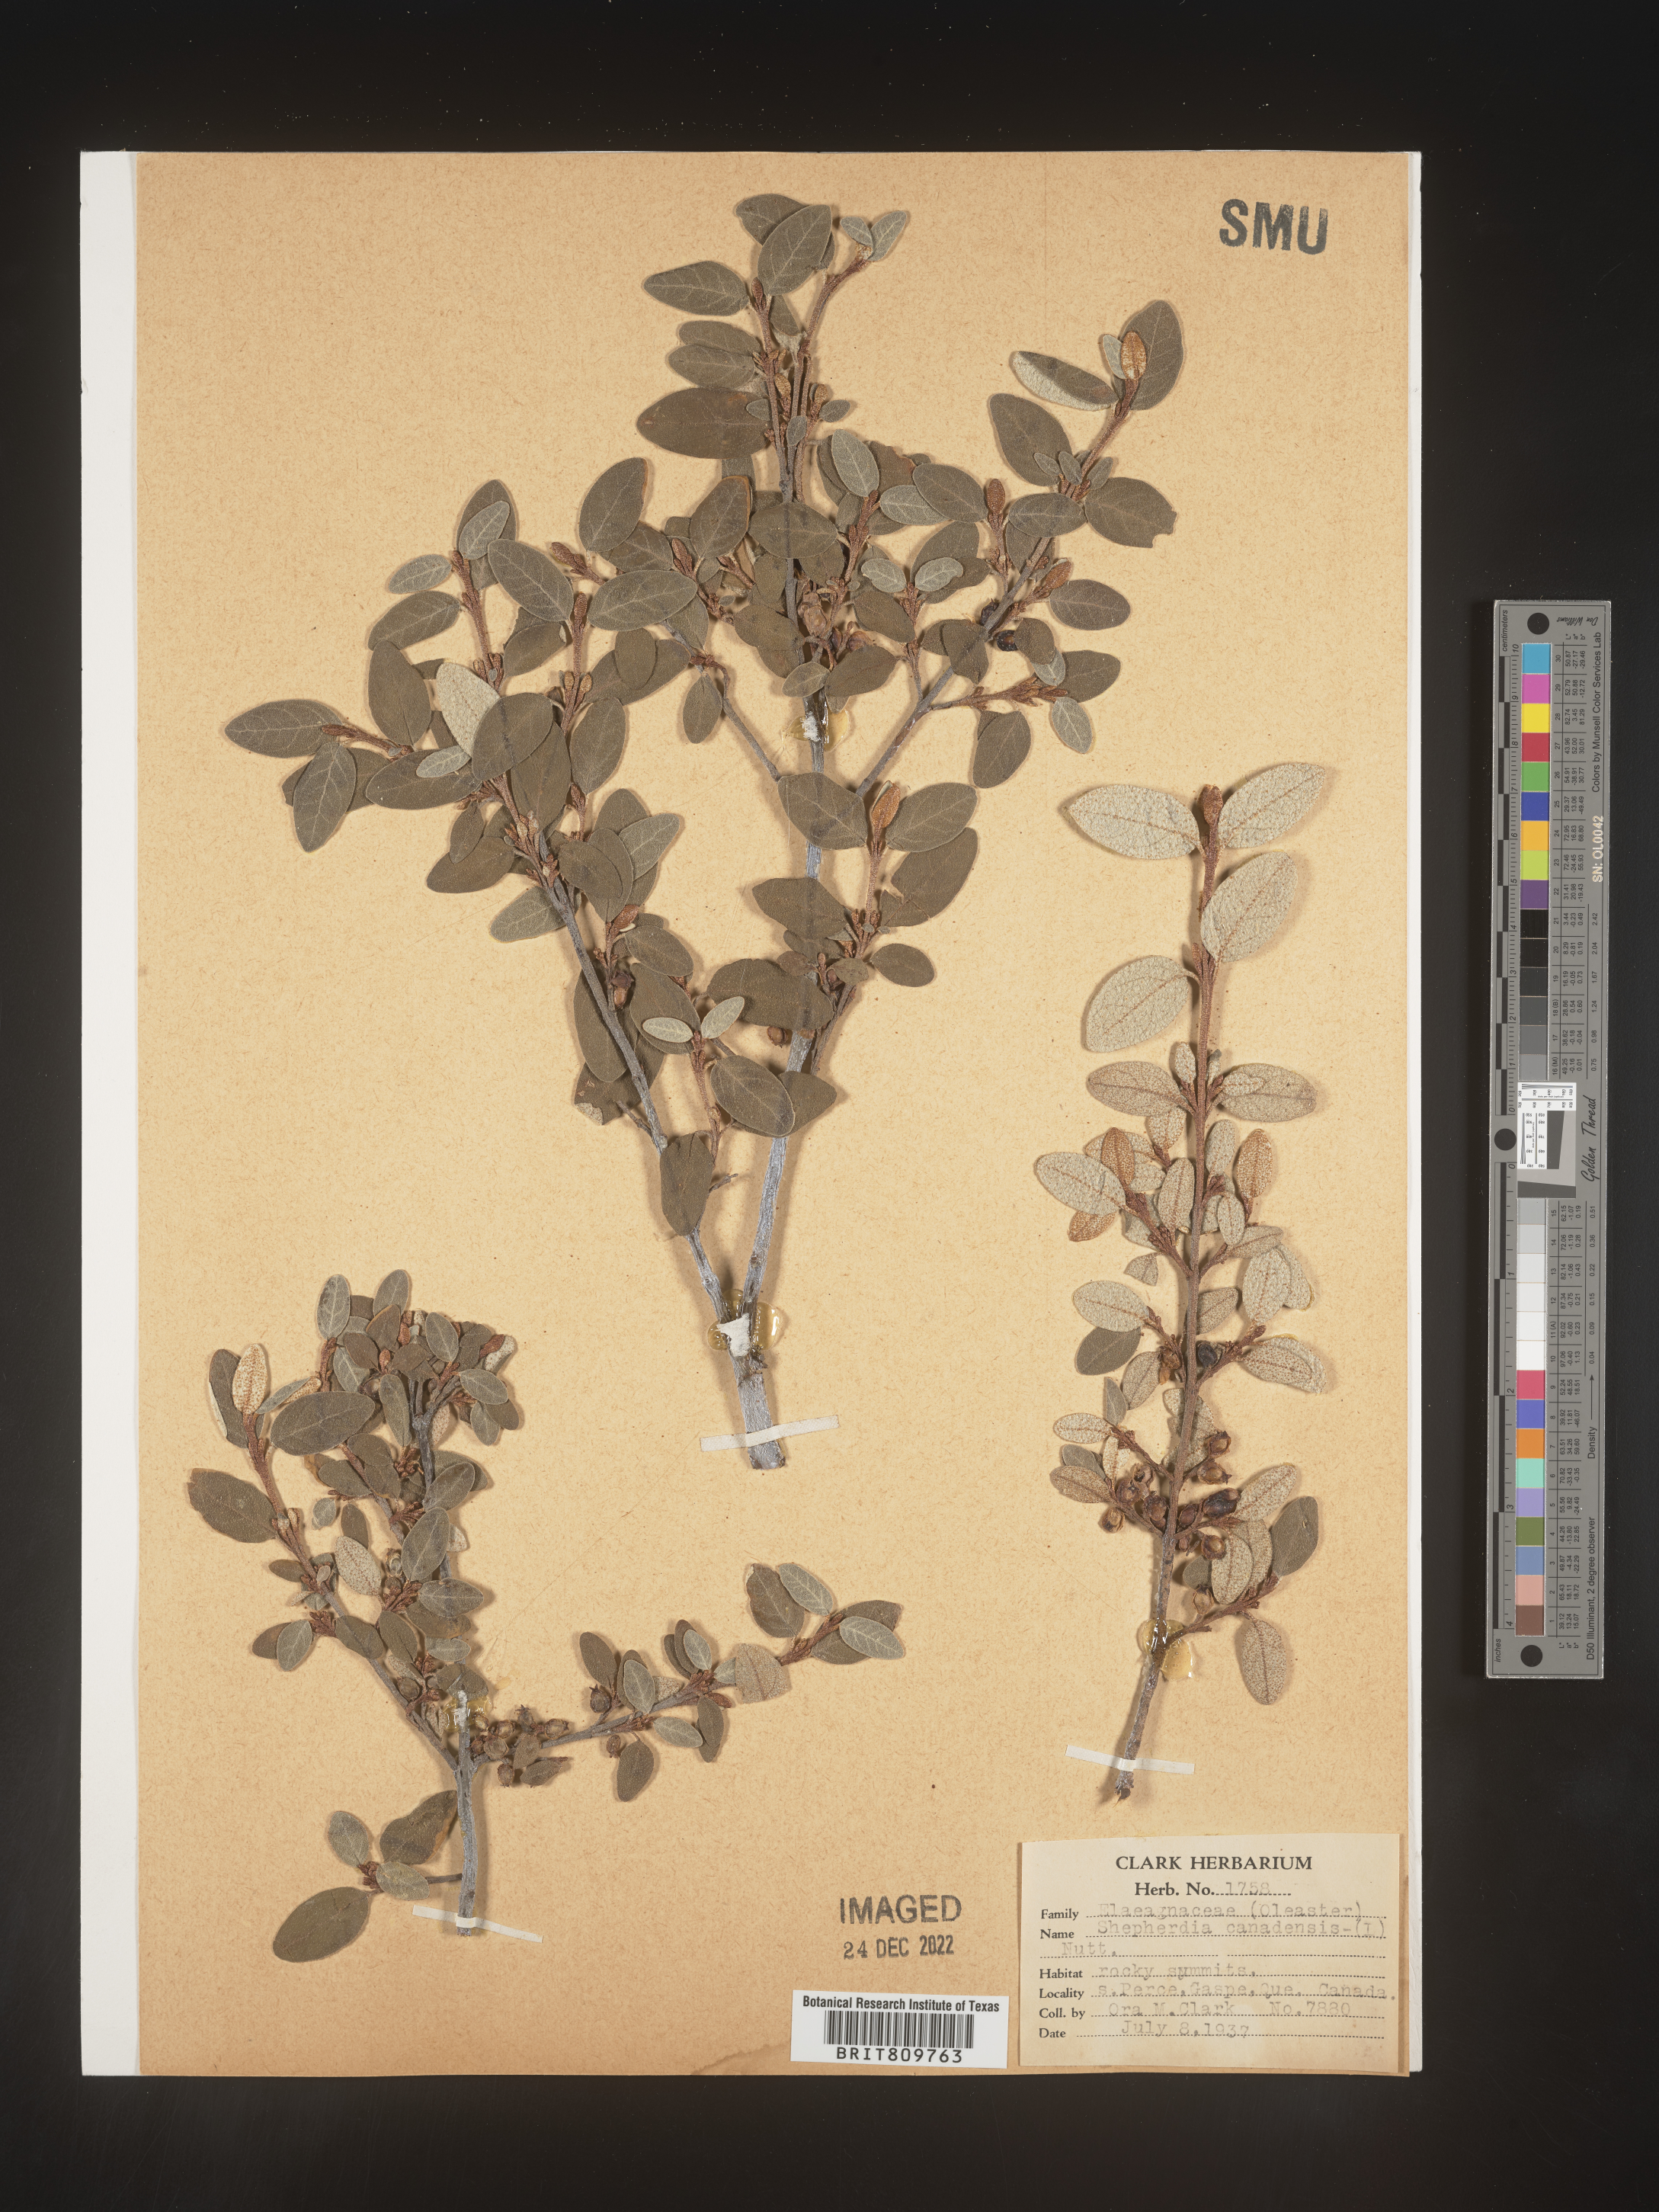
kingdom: Plantae
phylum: Tracheophyta
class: Magnoliopsida
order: Rosales
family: Elaeagnaceae
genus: Shepherdia
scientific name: Shepherdia canadensis
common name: Soapberry
